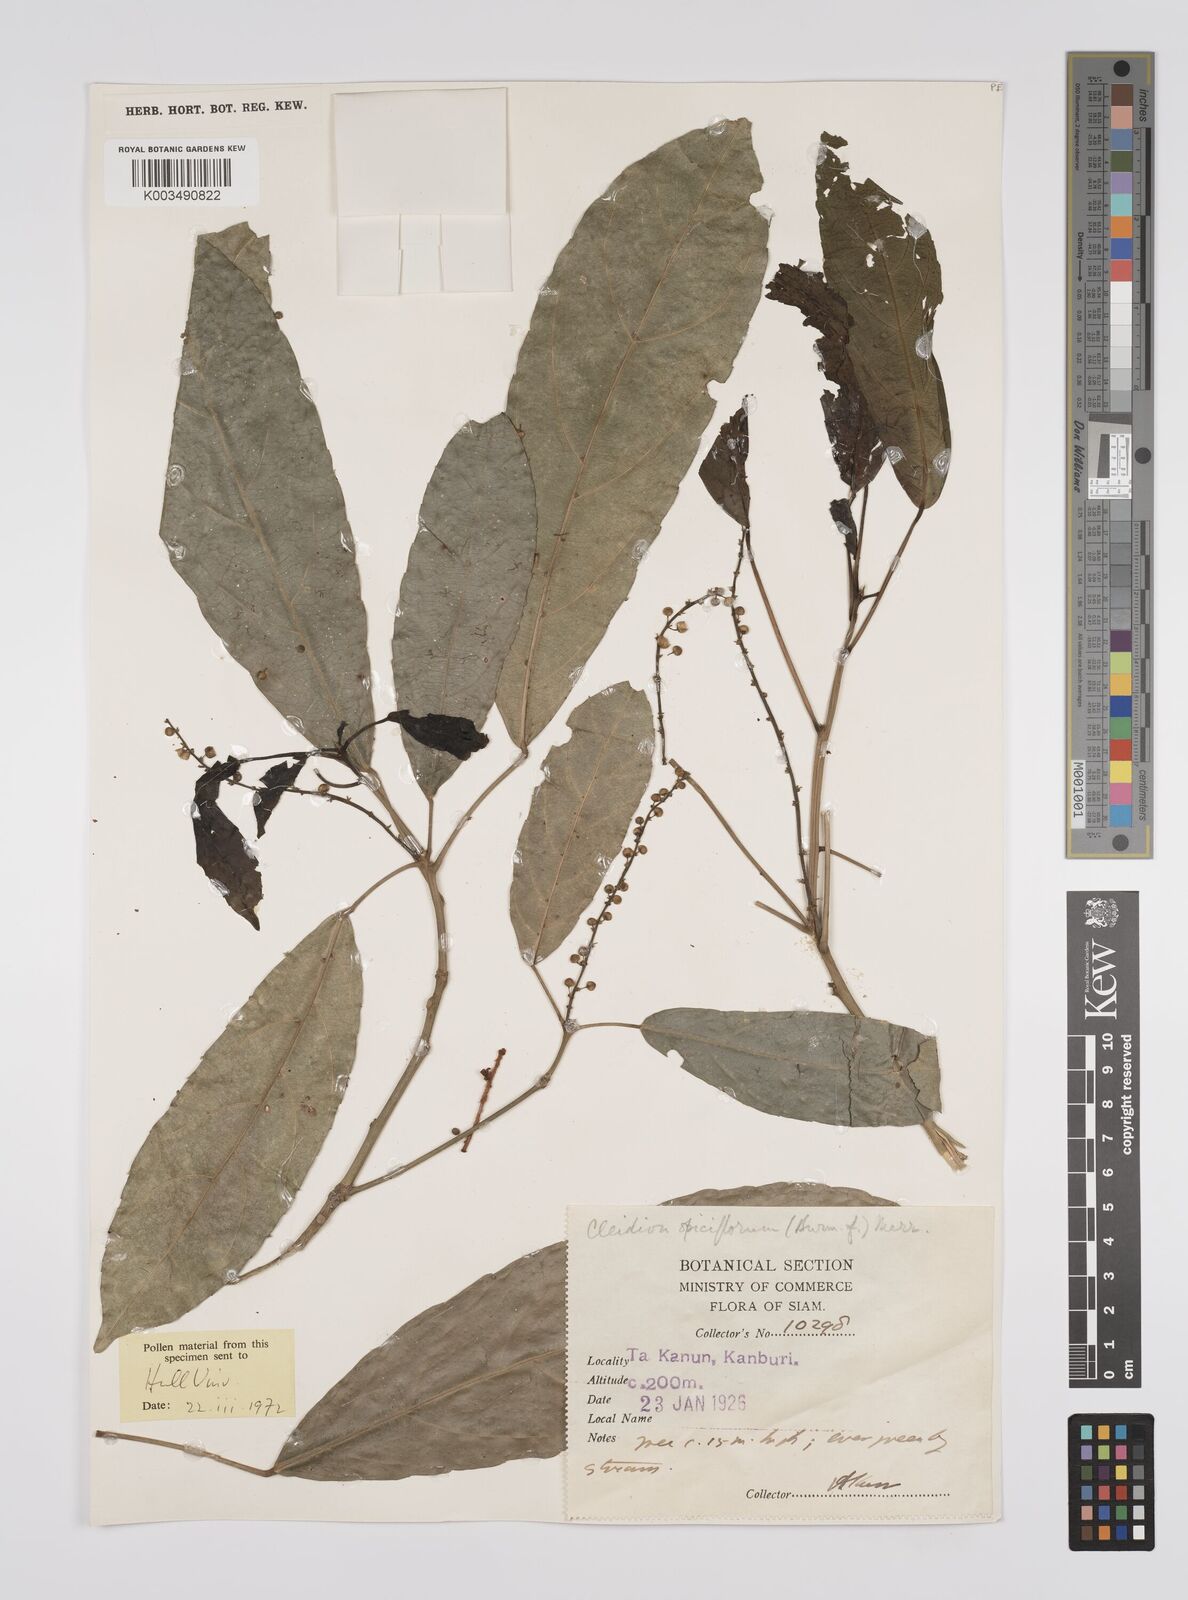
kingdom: Plantae
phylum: Tracheophyta
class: Magnoliopsida
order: Malpighiales
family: Euphorbiaceae
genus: Acalypha
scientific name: Acalypha spiciflora
